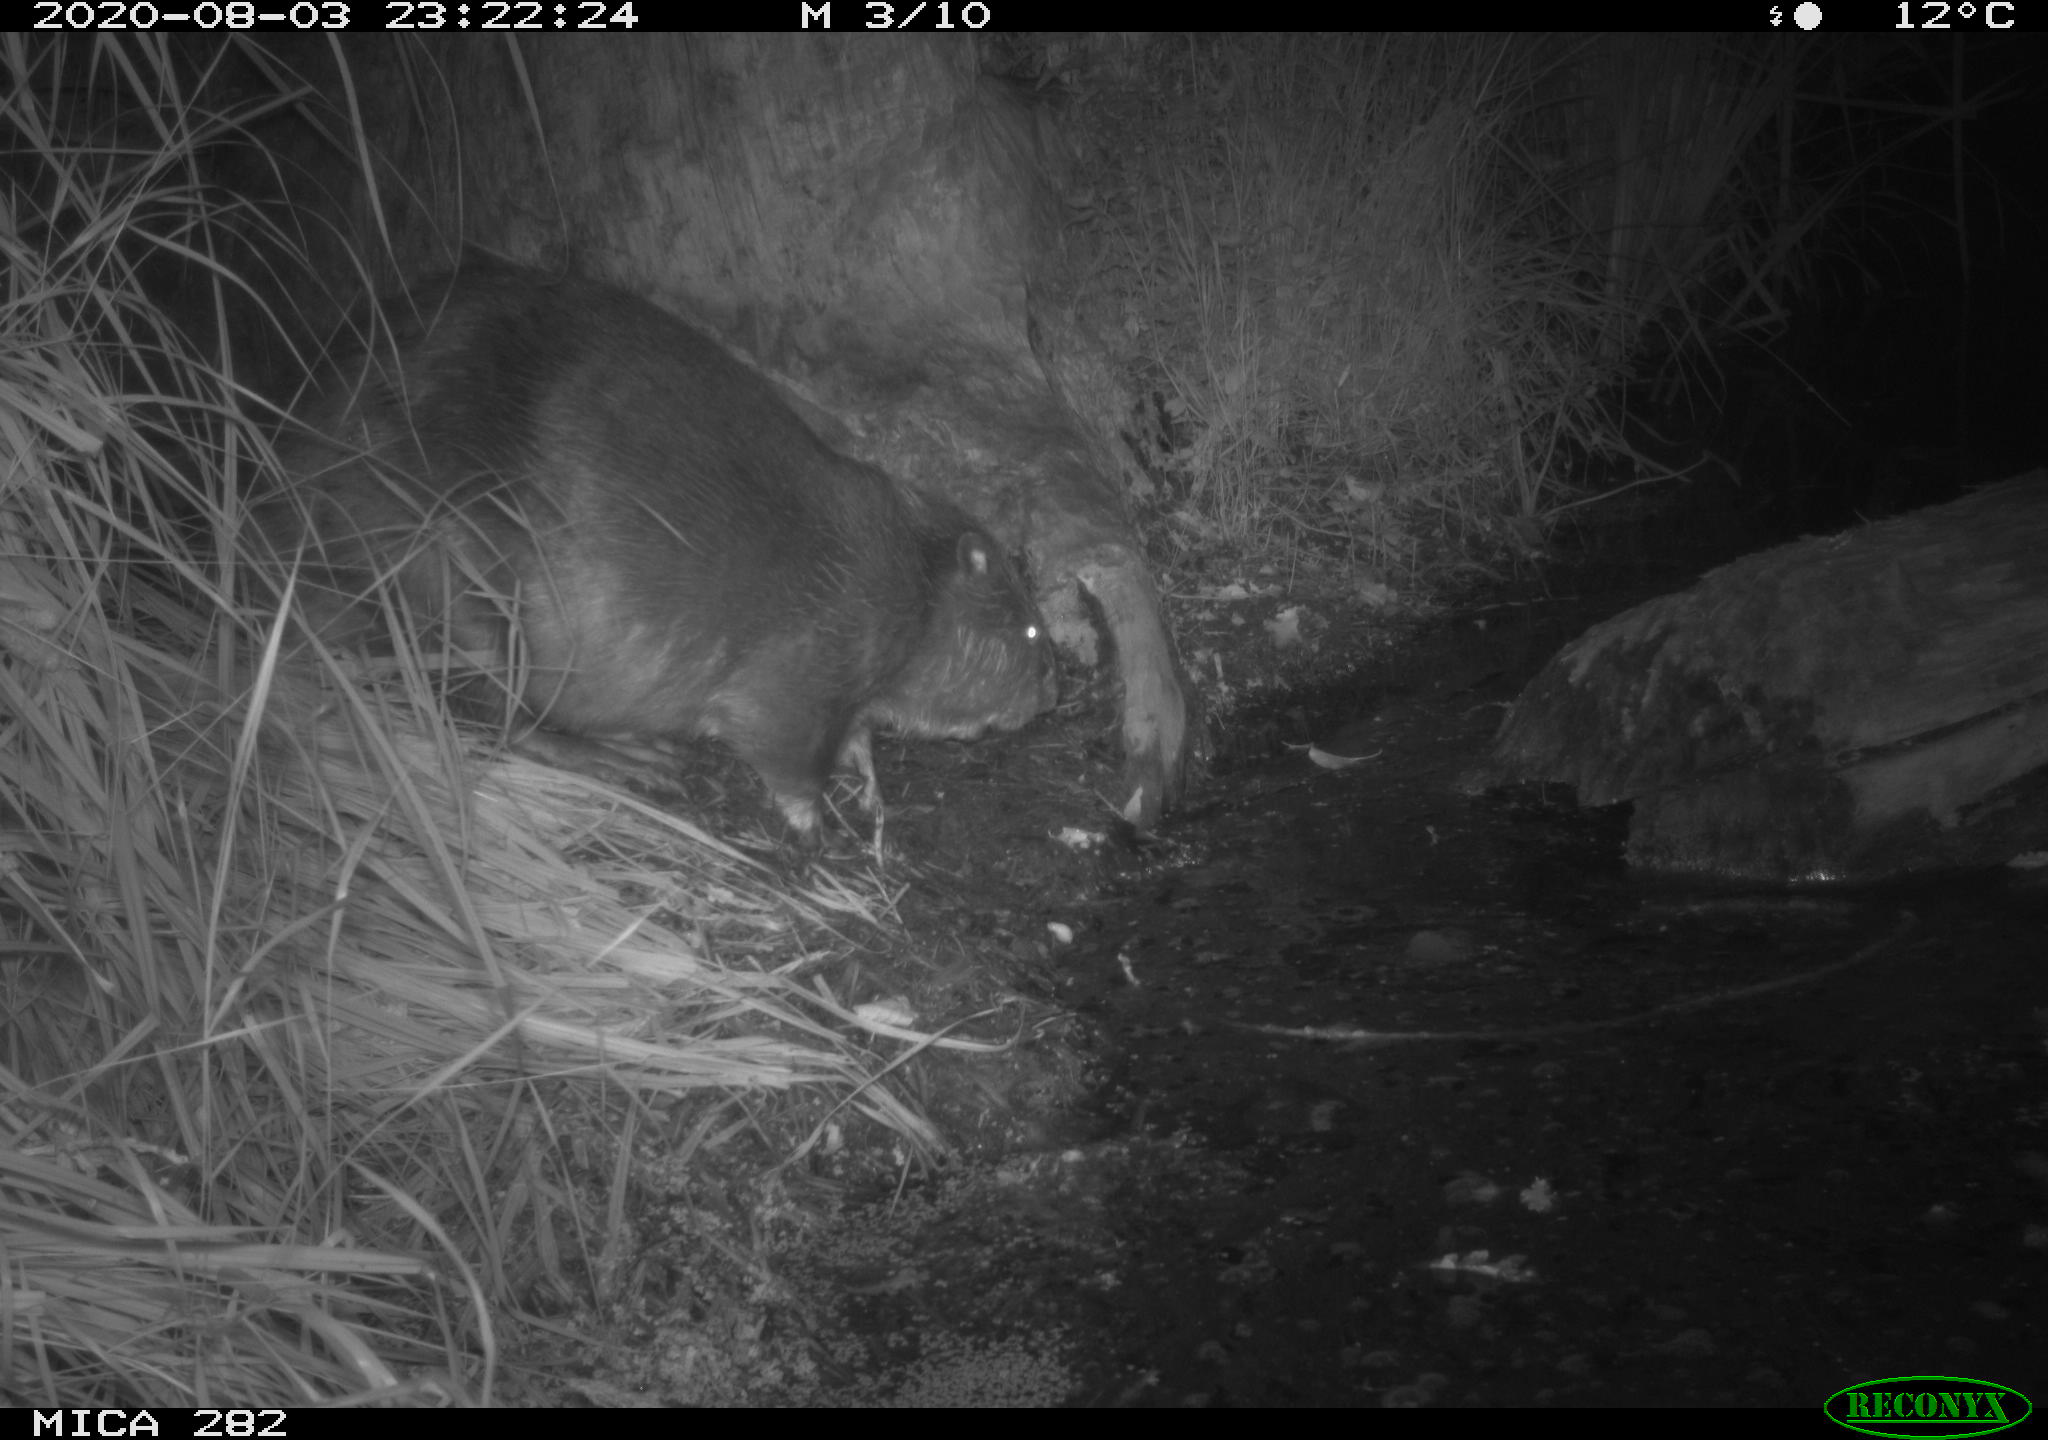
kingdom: Animalia
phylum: Chordata
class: Mammalia
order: Rodentia
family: Castoridae
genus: Castor
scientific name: Castor fiber
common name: Eurasian beaver
